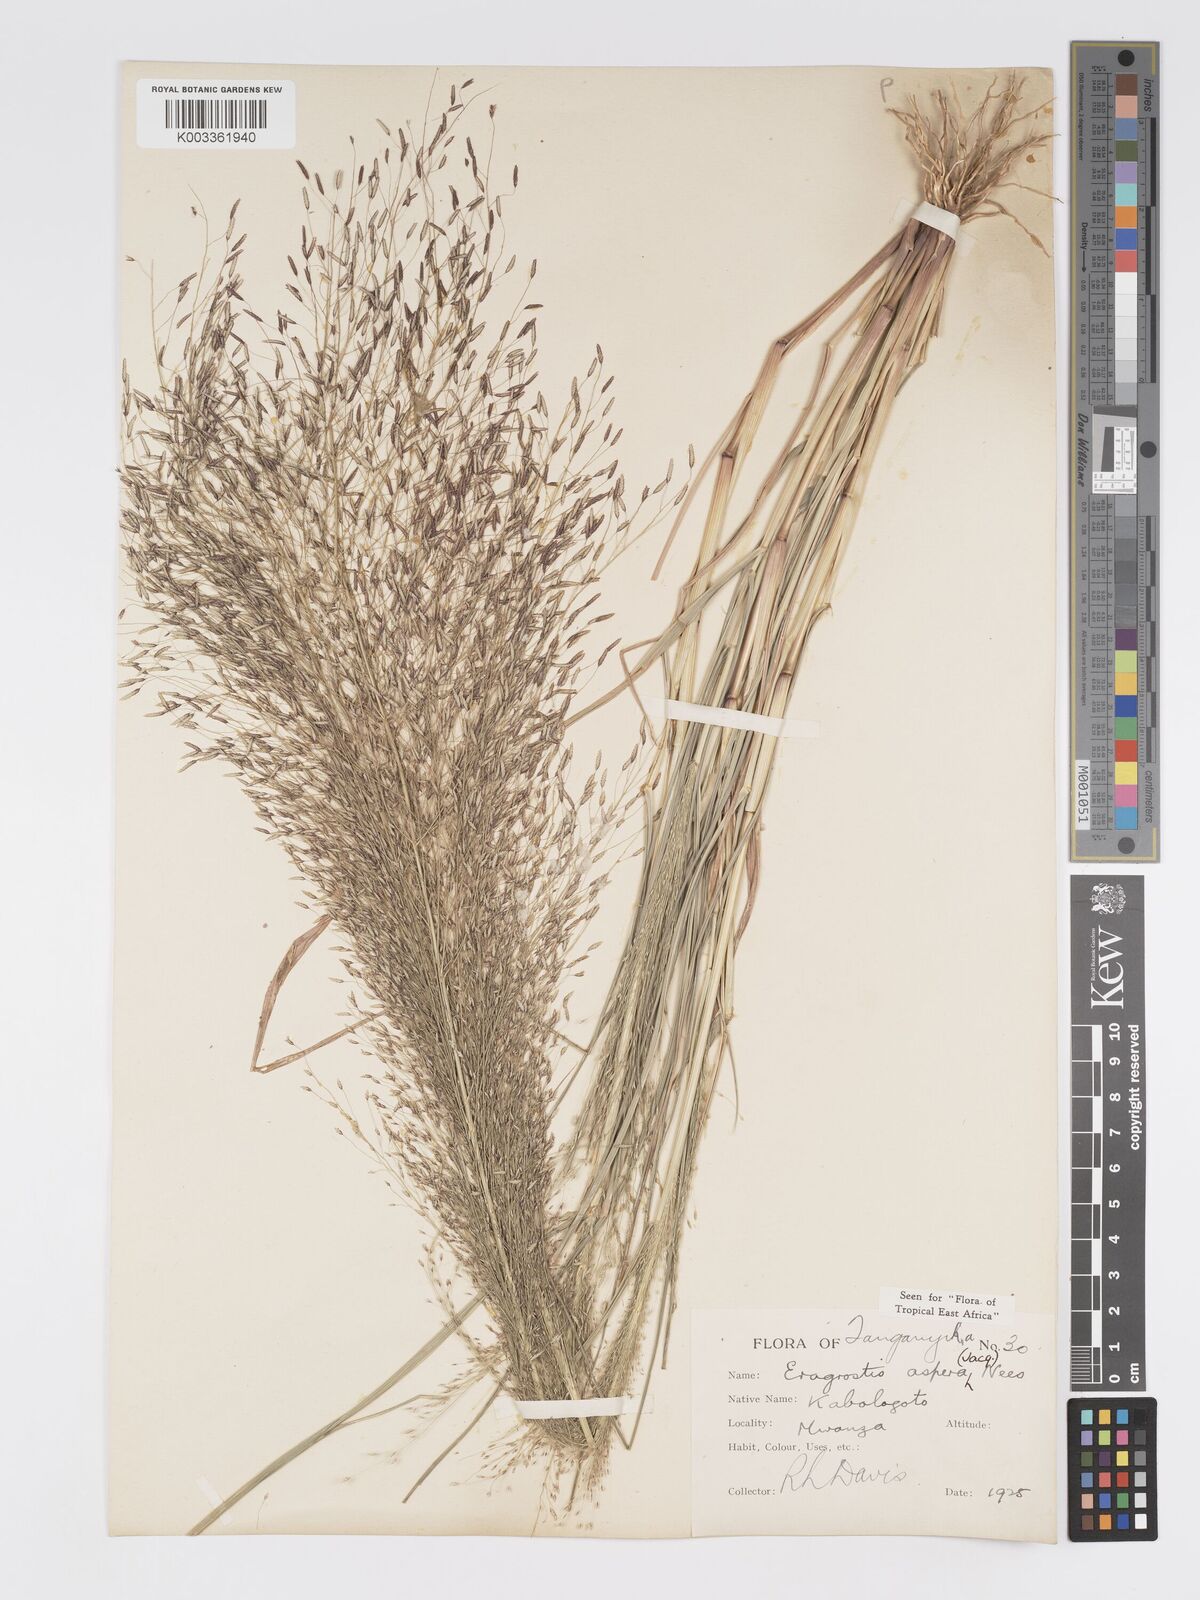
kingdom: Plantae
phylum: Tracheophyta
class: Liliopsida
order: Poales
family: Poaceae
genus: Eragrostis
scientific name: Eragrostis aspera
